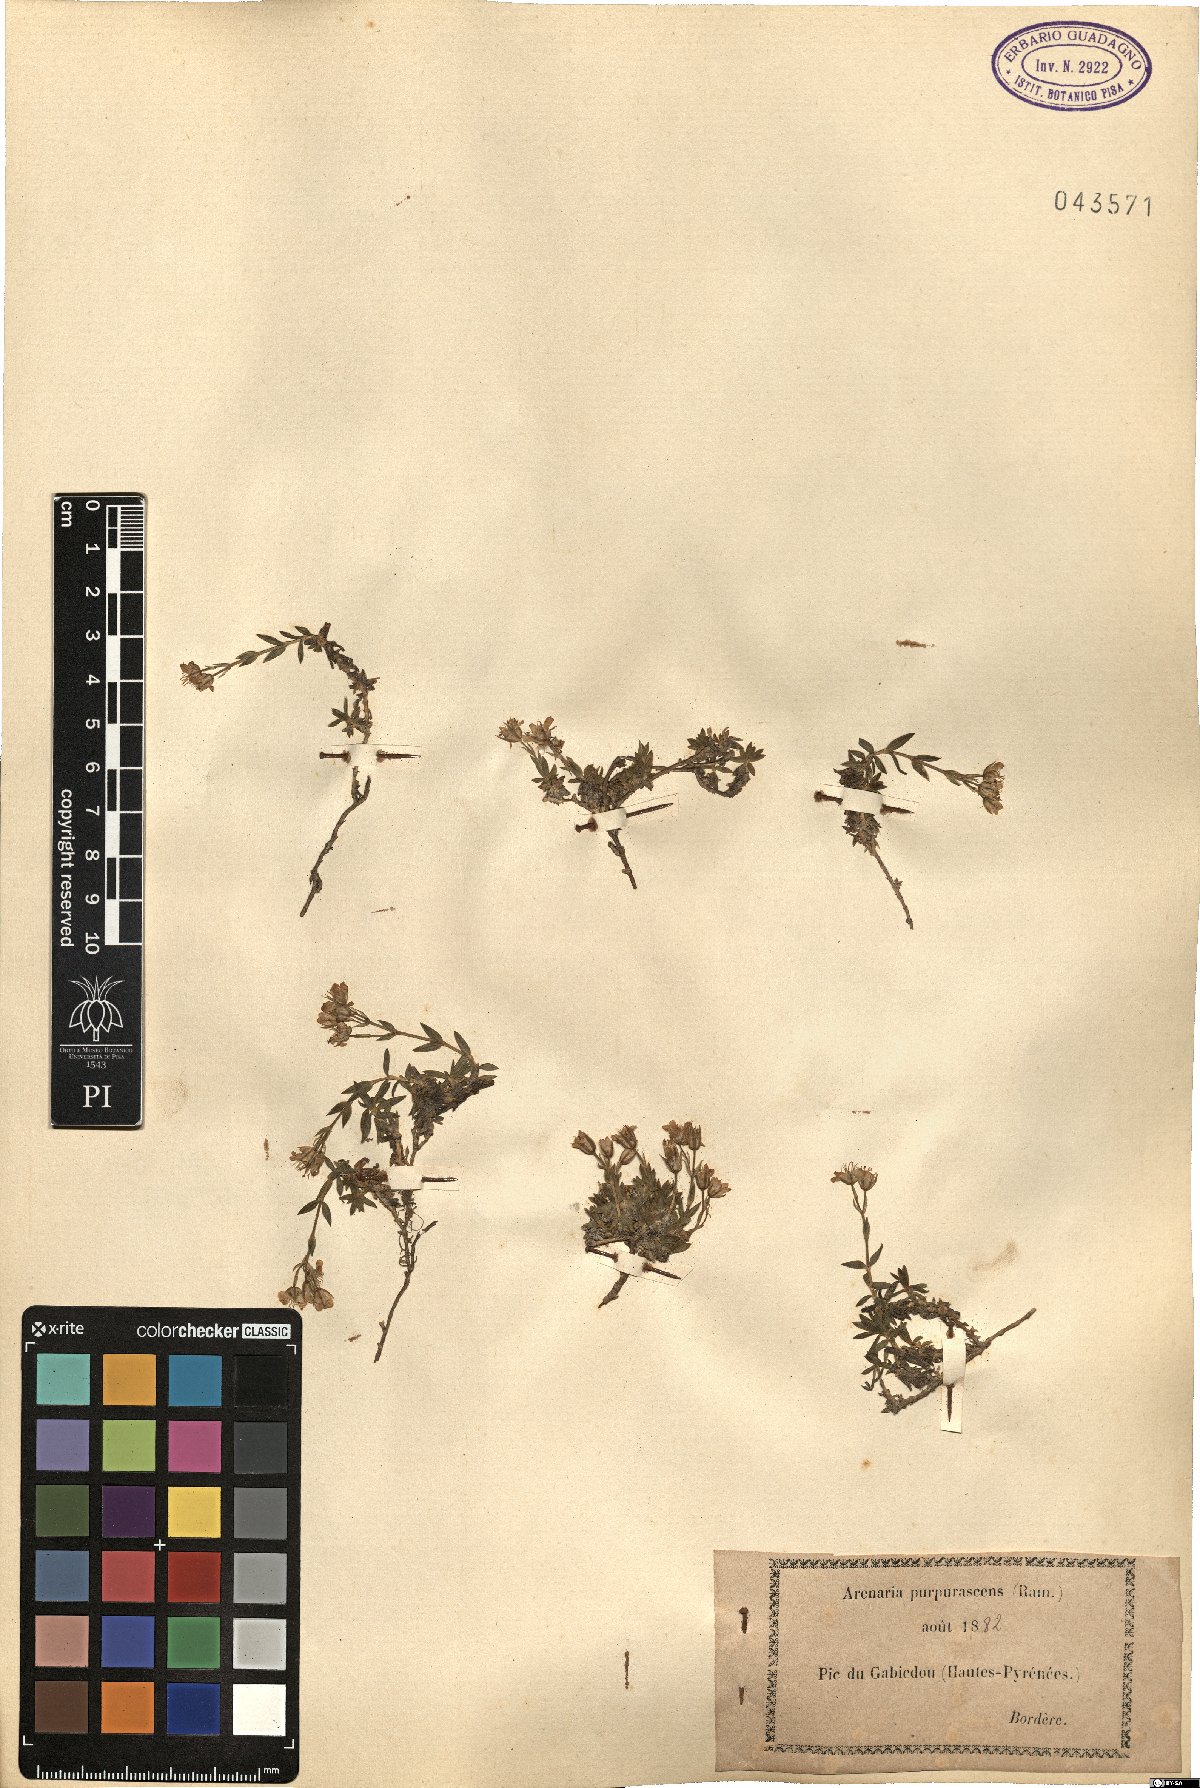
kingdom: Plantae
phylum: Tracheophyta
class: Magnoliopsida
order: Caryophyllales
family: Caryophyllaceae
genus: Arenaria
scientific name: Arenaria purpurascens
